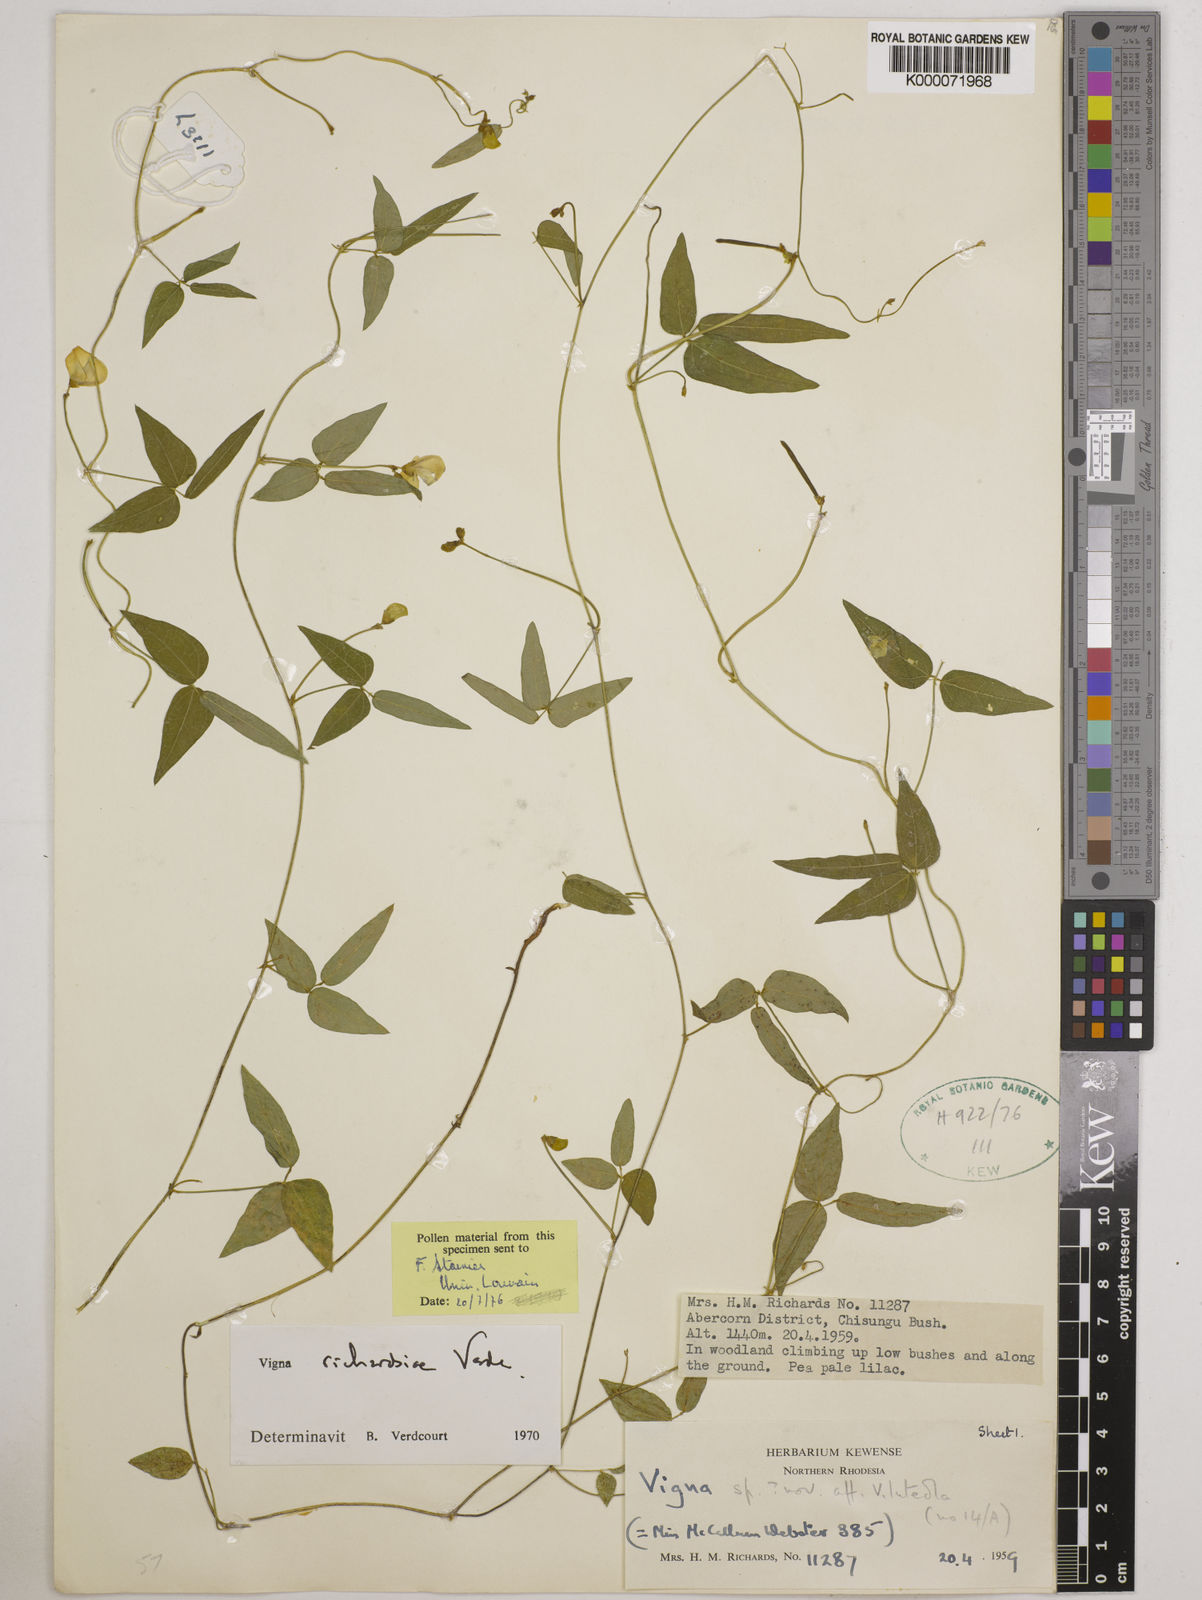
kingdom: Plantae
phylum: Tracheophyta
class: Magnoliopsida
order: Fabales
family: Fabaceae
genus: Vigna
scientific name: Vigna richardsiae
